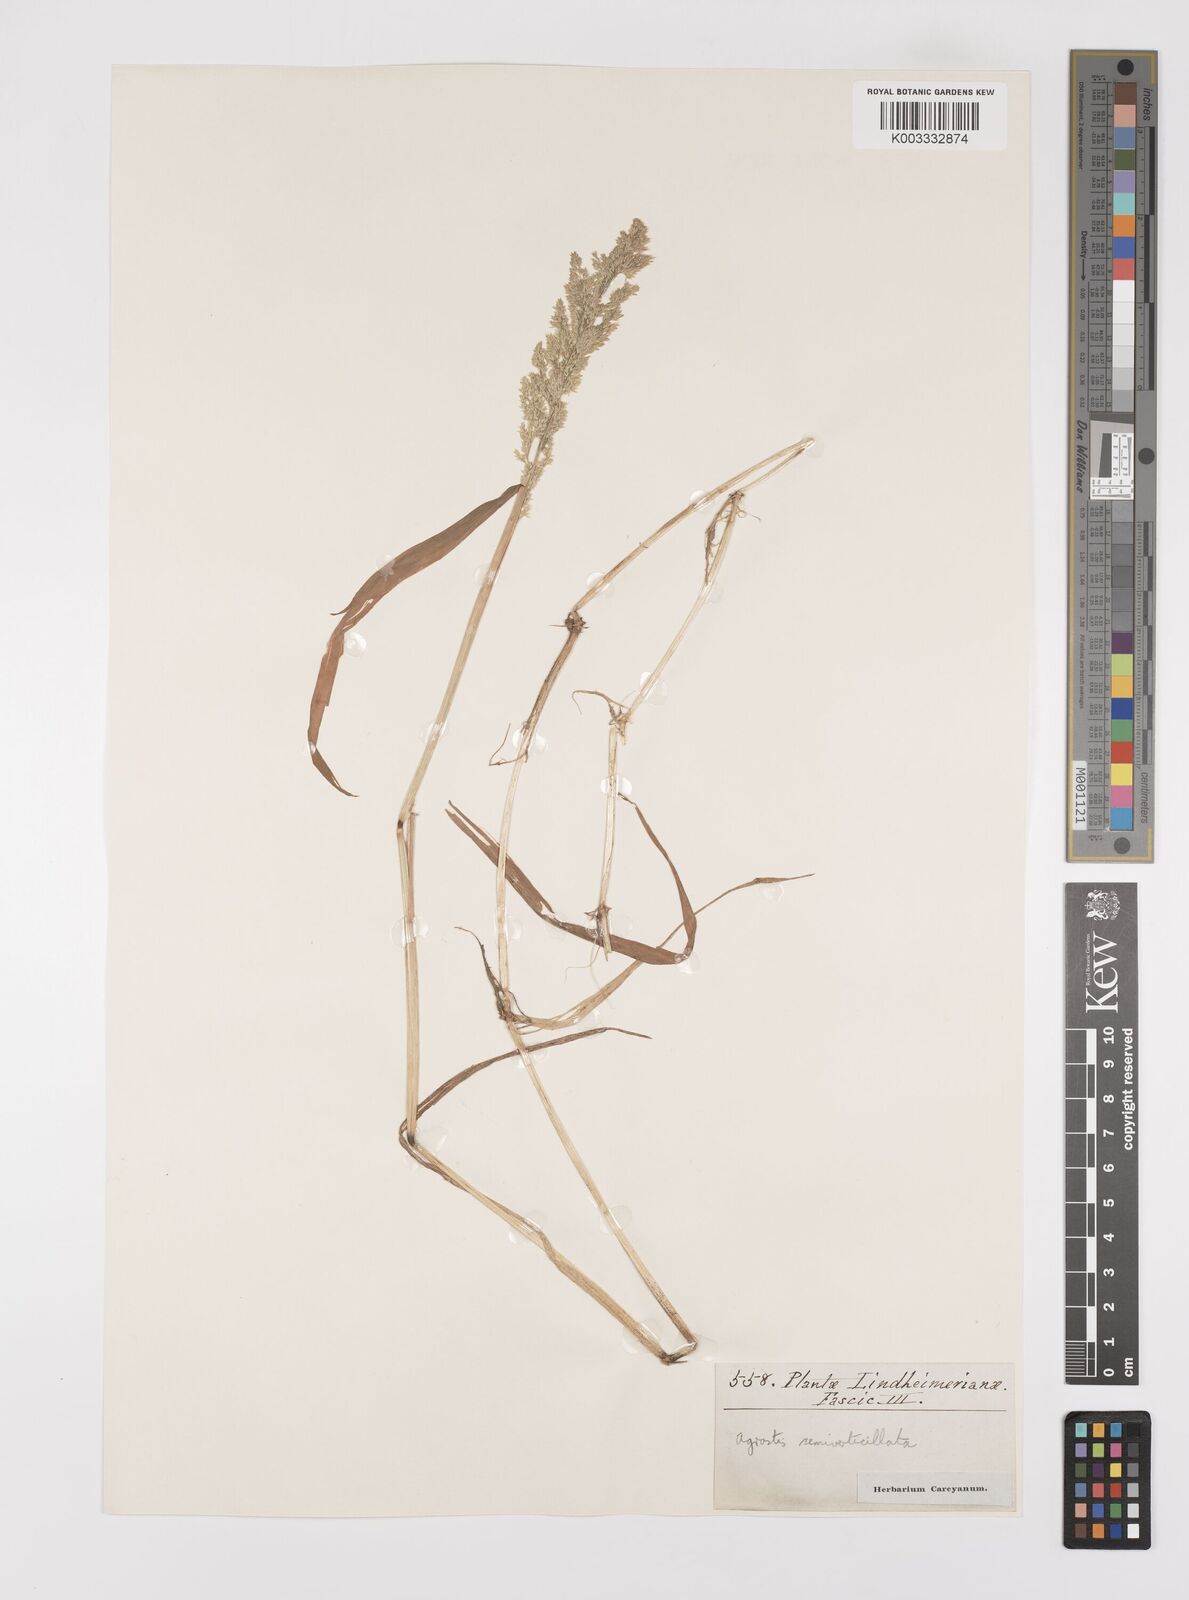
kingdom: Plantae
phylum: Tracheophyta
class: Liliopsida
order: Poales
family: Poaceae
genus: Polypogon
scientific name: Polypogon viridis
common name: Water bent
